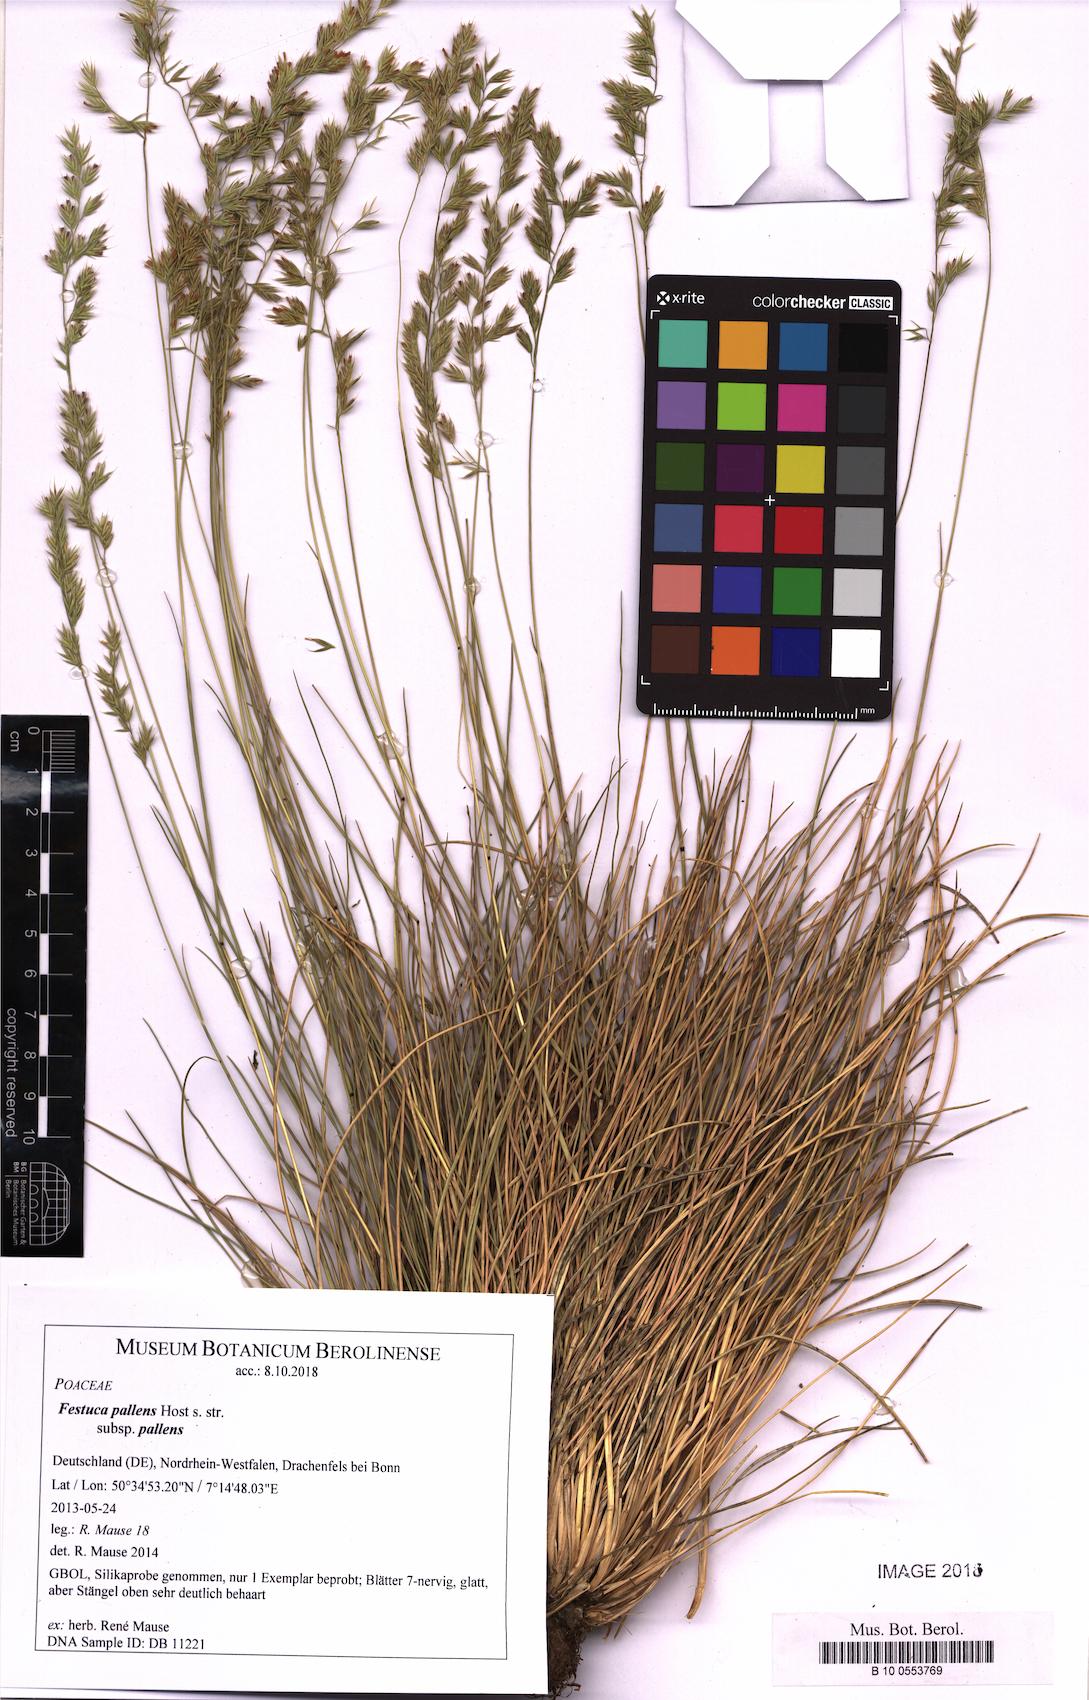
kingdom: Plantae
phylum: Tracheophyta
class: Liliopsida
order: Poales
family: Poaceae
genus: Festuca
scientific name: Festuca pallens
